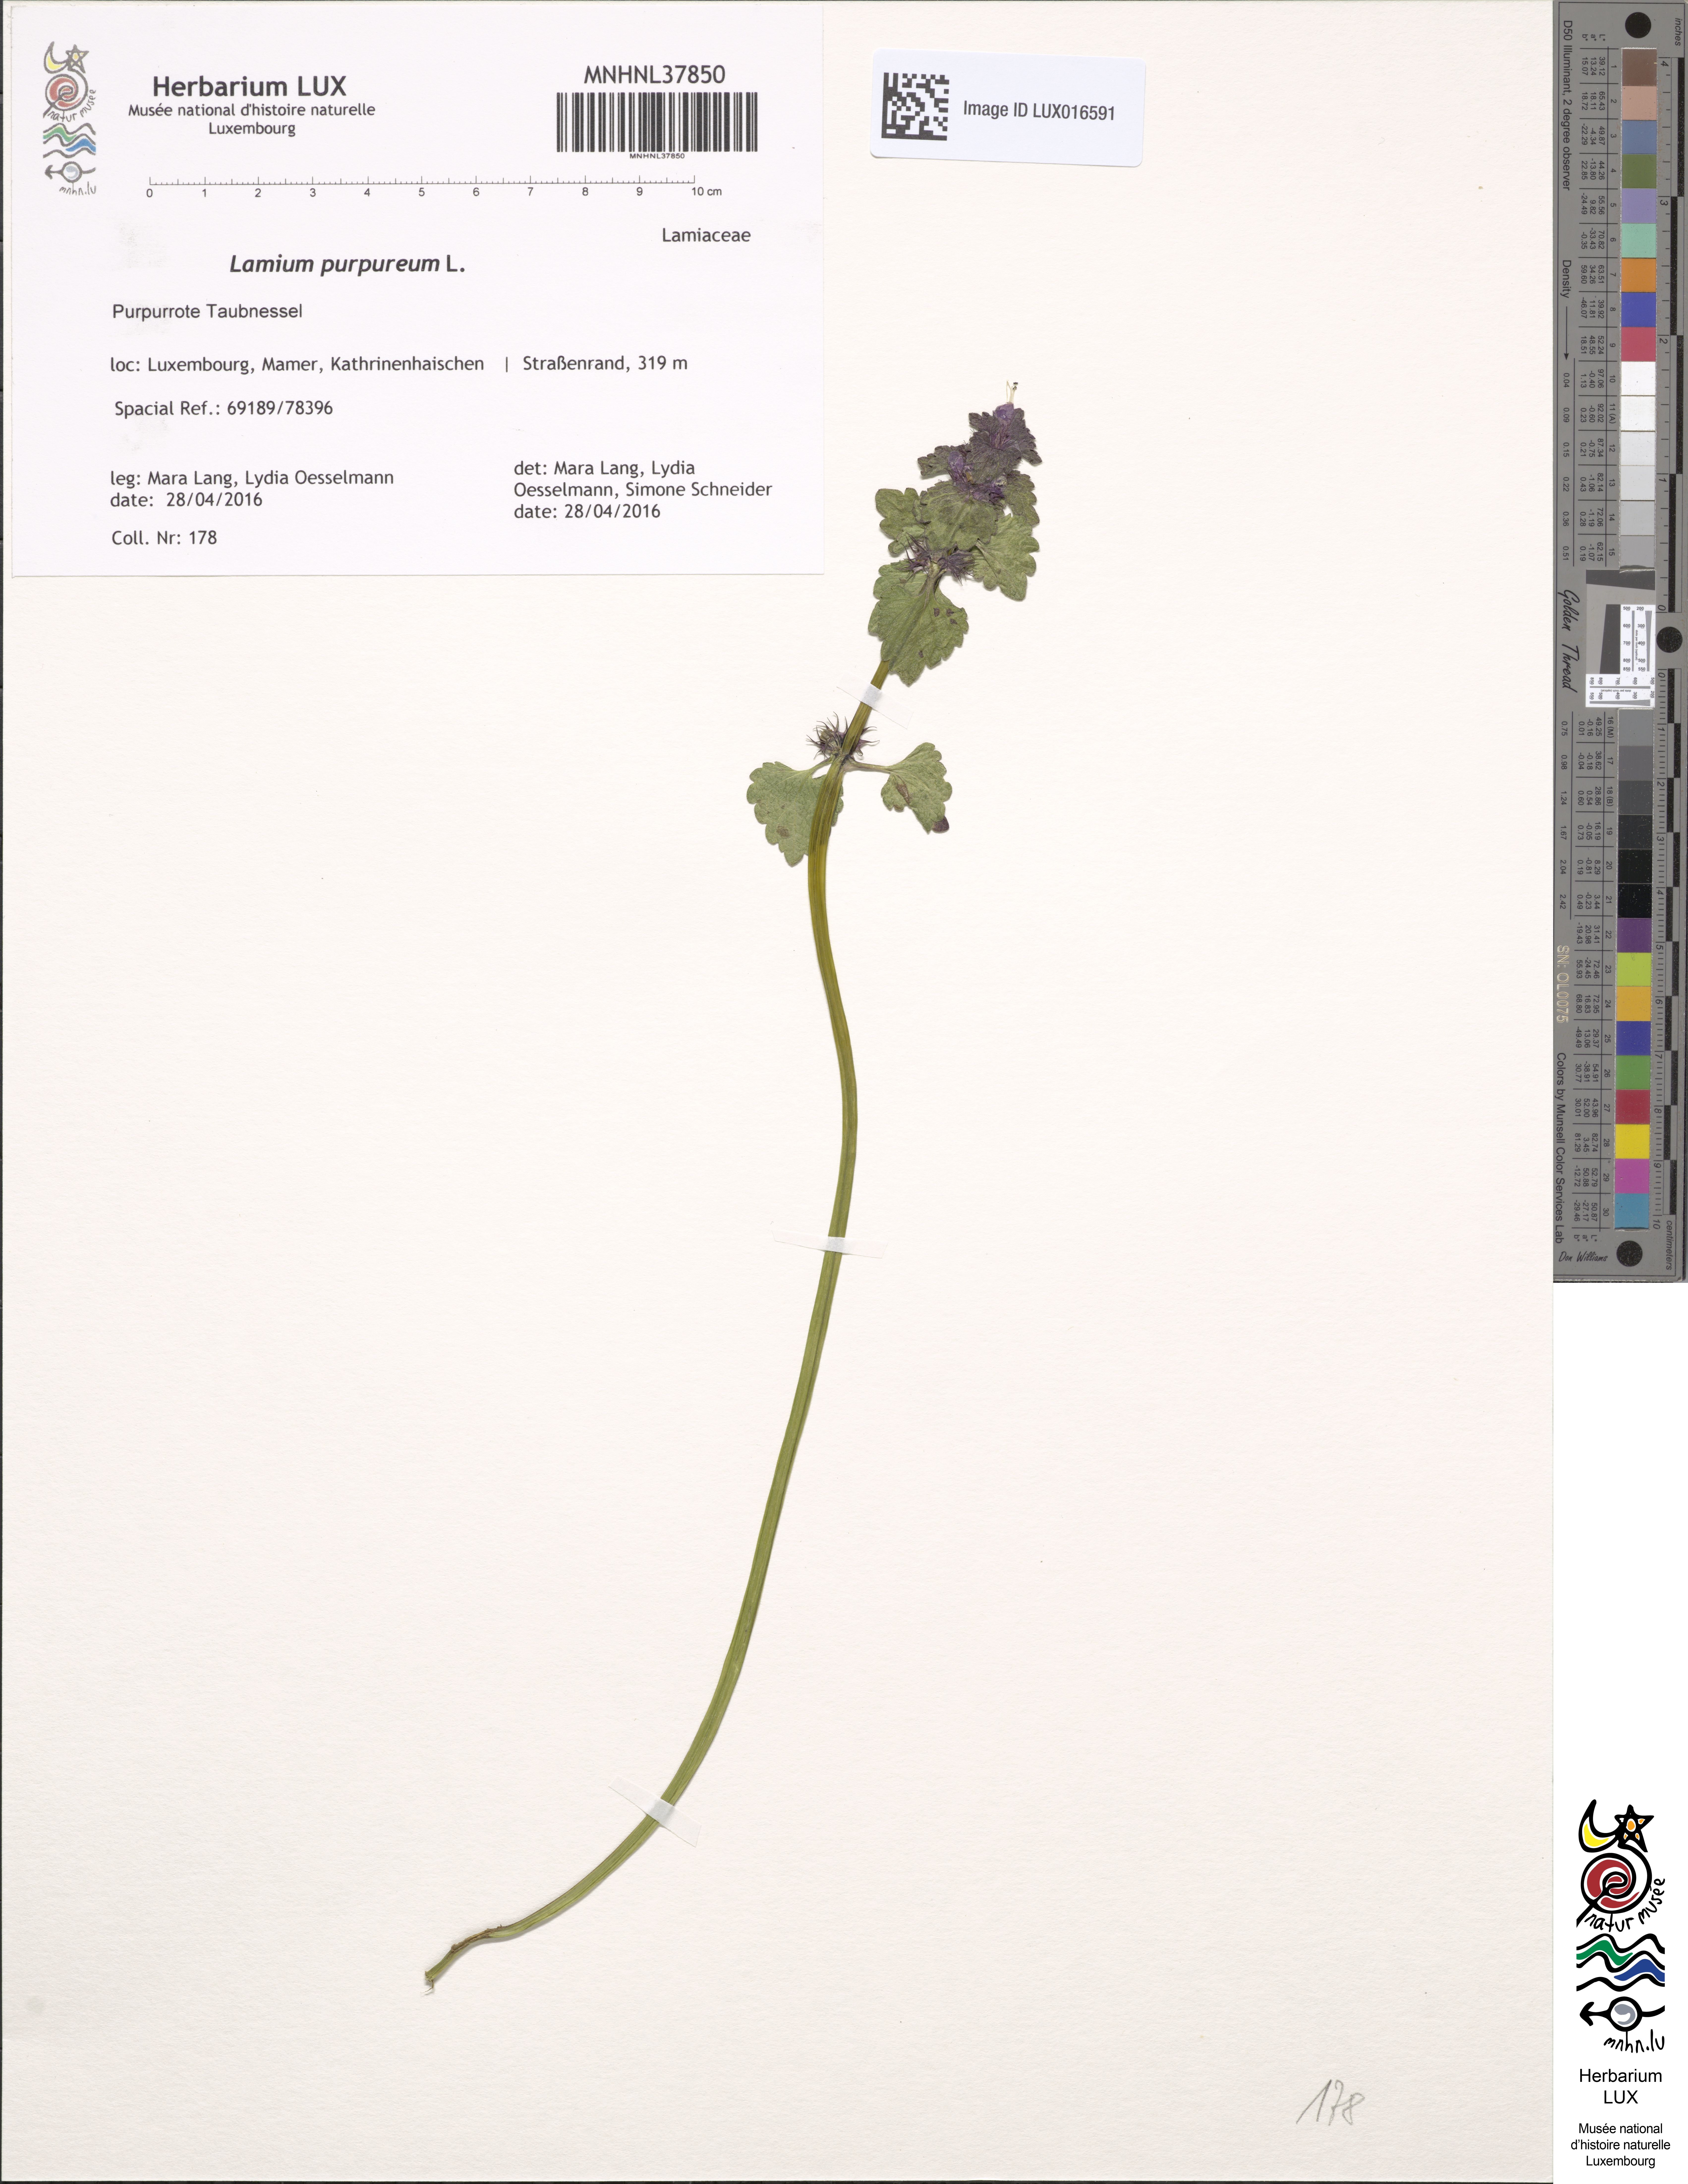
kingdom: Plantae
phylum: Tracheophyta
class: Magnoliopsida
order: Lamiales
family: Lamiaceae
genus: Lamium
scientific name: Lamium purpureum
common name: Red dead-nettle
